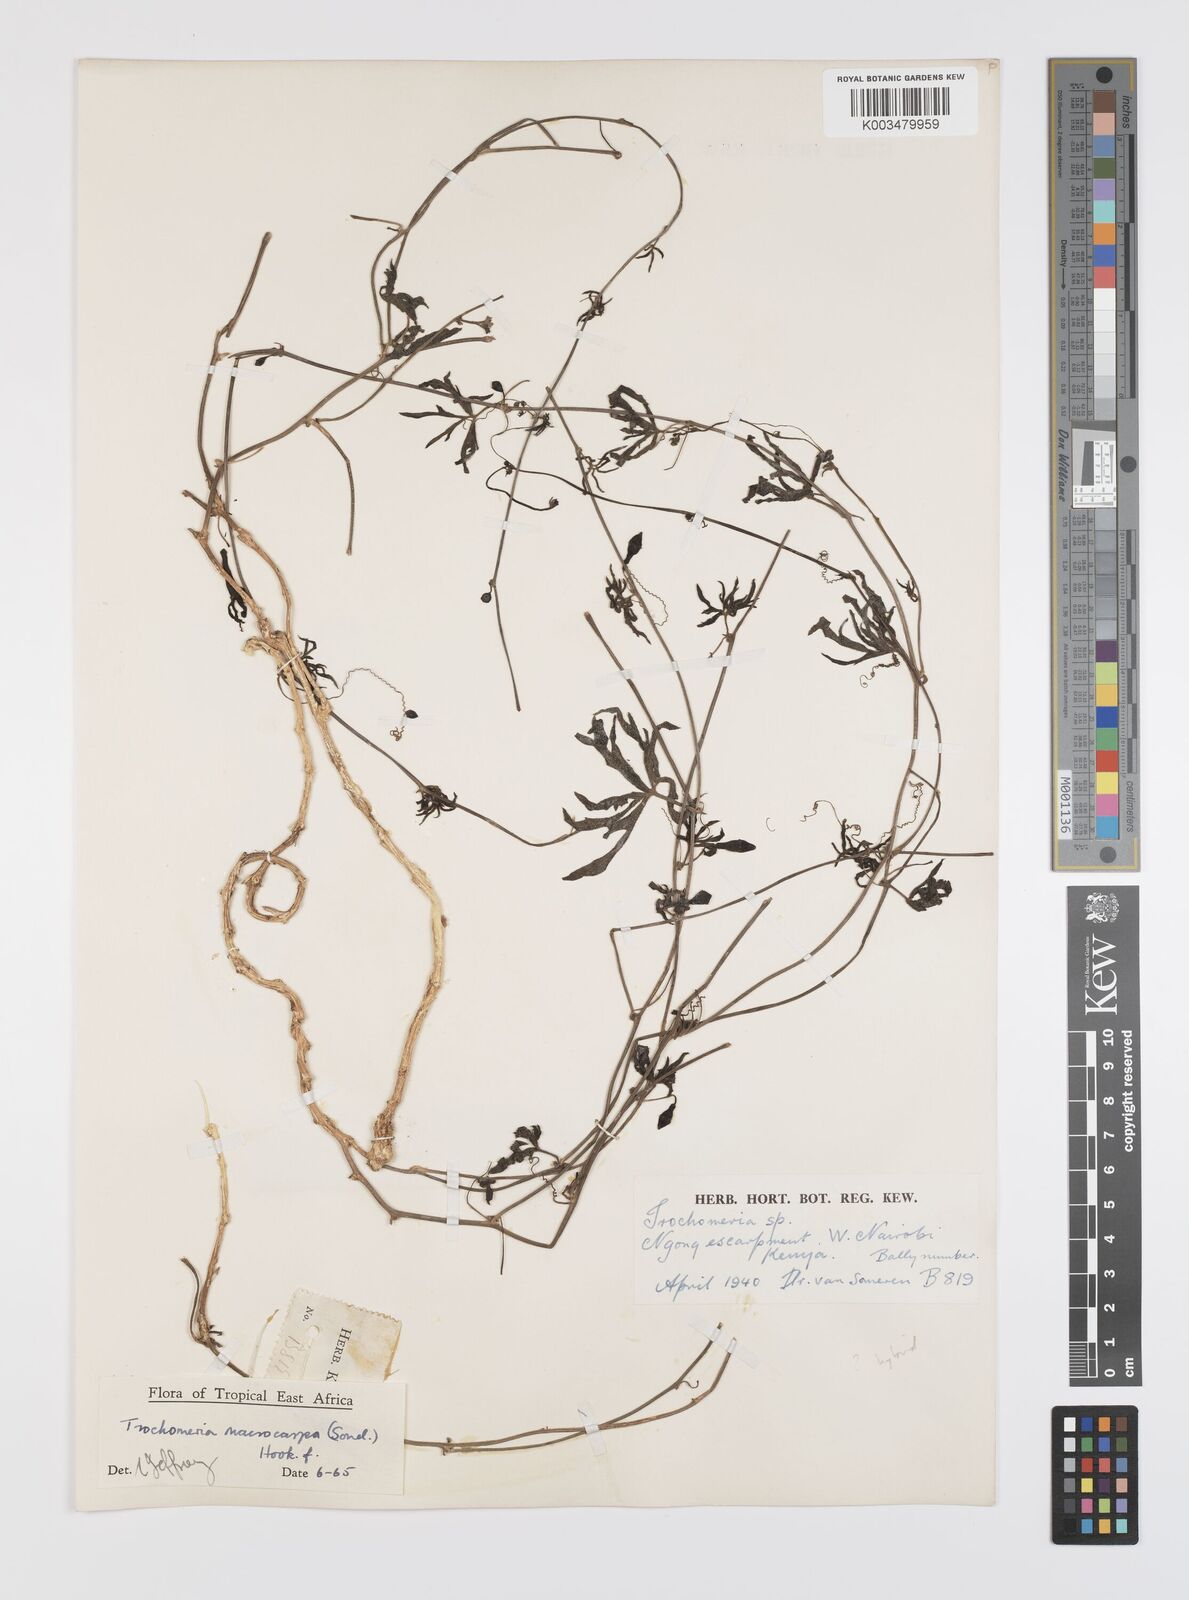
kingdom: Plantae
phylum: Tracheophyta
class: Magnoliopsida
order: Cucurbitales
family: Cucurbitaceae
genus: Trochomeria
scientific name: Trochomeria macrocarpa
